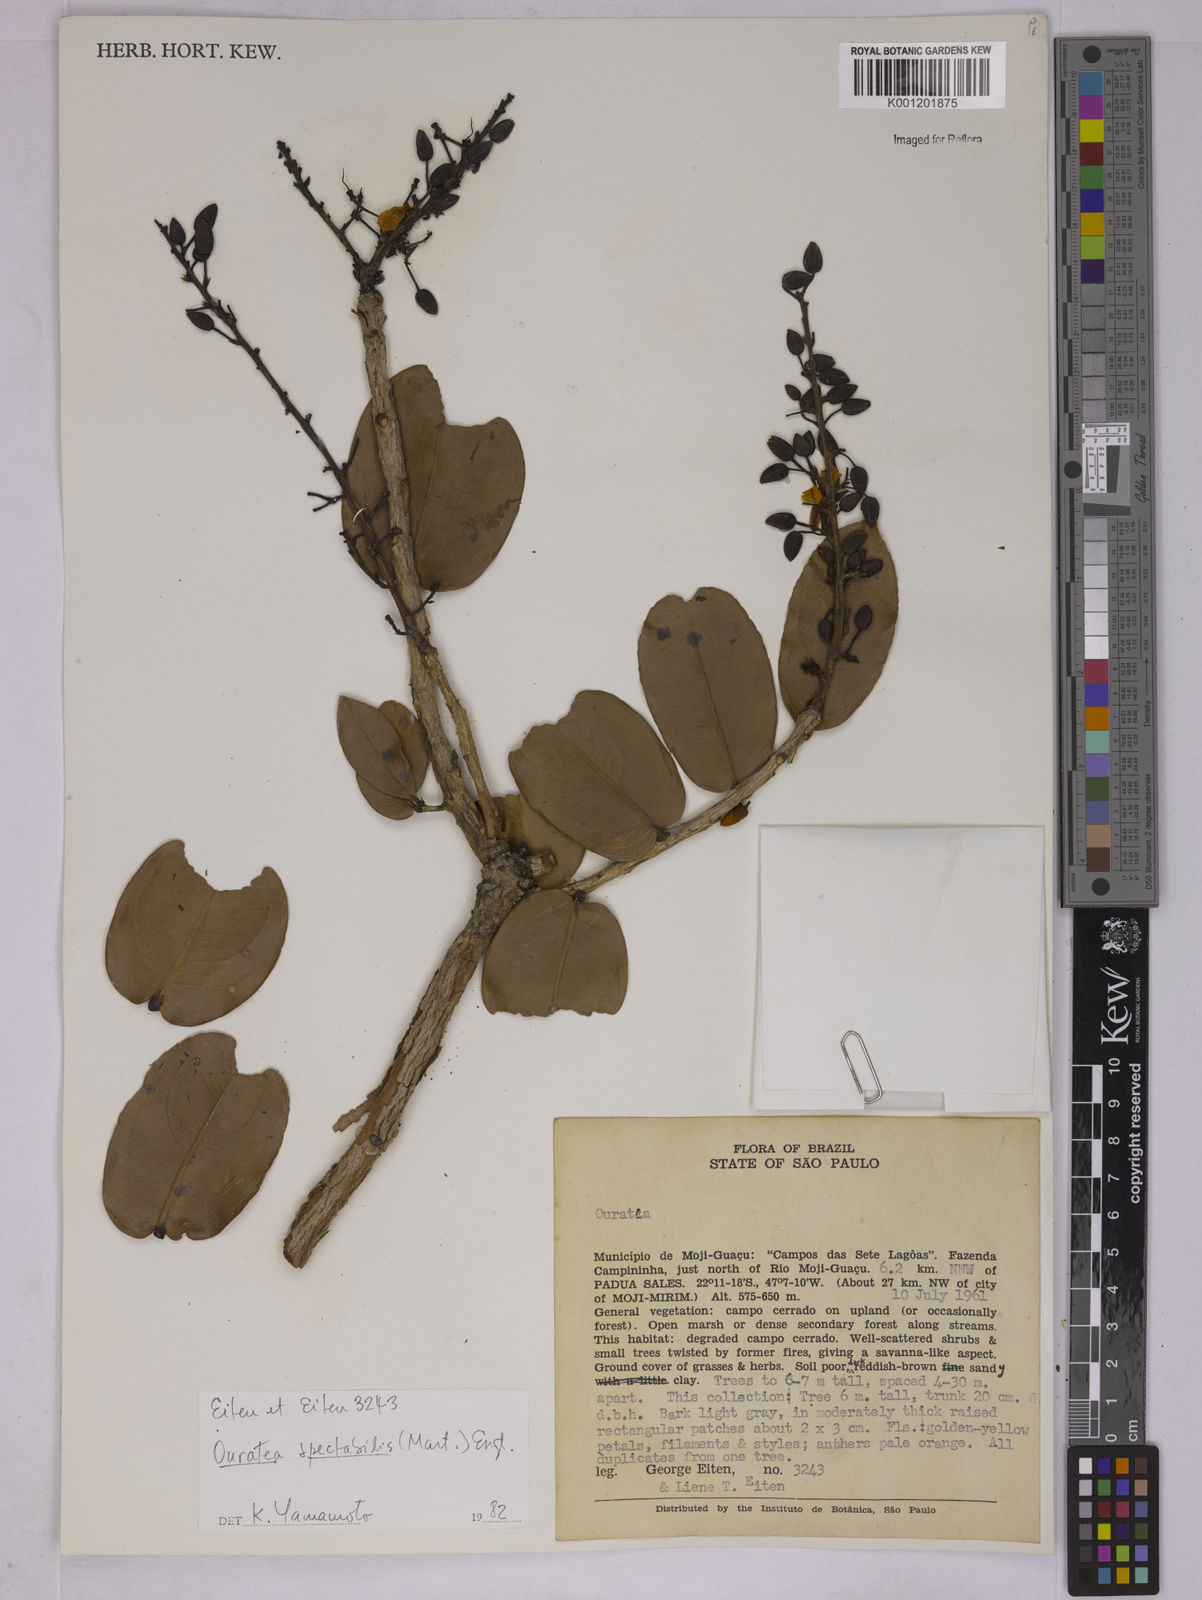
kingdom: Plantae
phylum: Tracheophyta
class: Magnoliopsida
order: Malpighiales
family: Ochnaceae
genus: Ouratea
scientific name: Ouratea spectabilis
